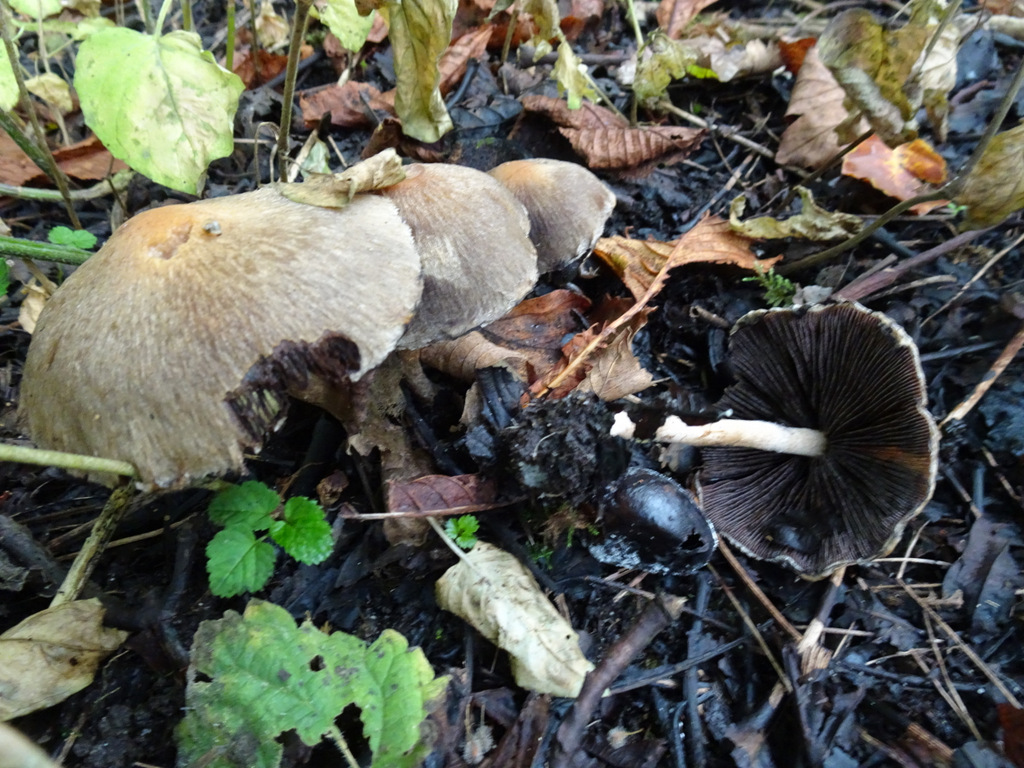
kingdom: Fungi
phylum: Basidiomycota
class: Agaricomycetes
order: Agaricales
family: Psathyrellaceae
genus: Lacrymaria
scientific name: Lacrymaria lacrymabunda
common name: grædende mørkhat
